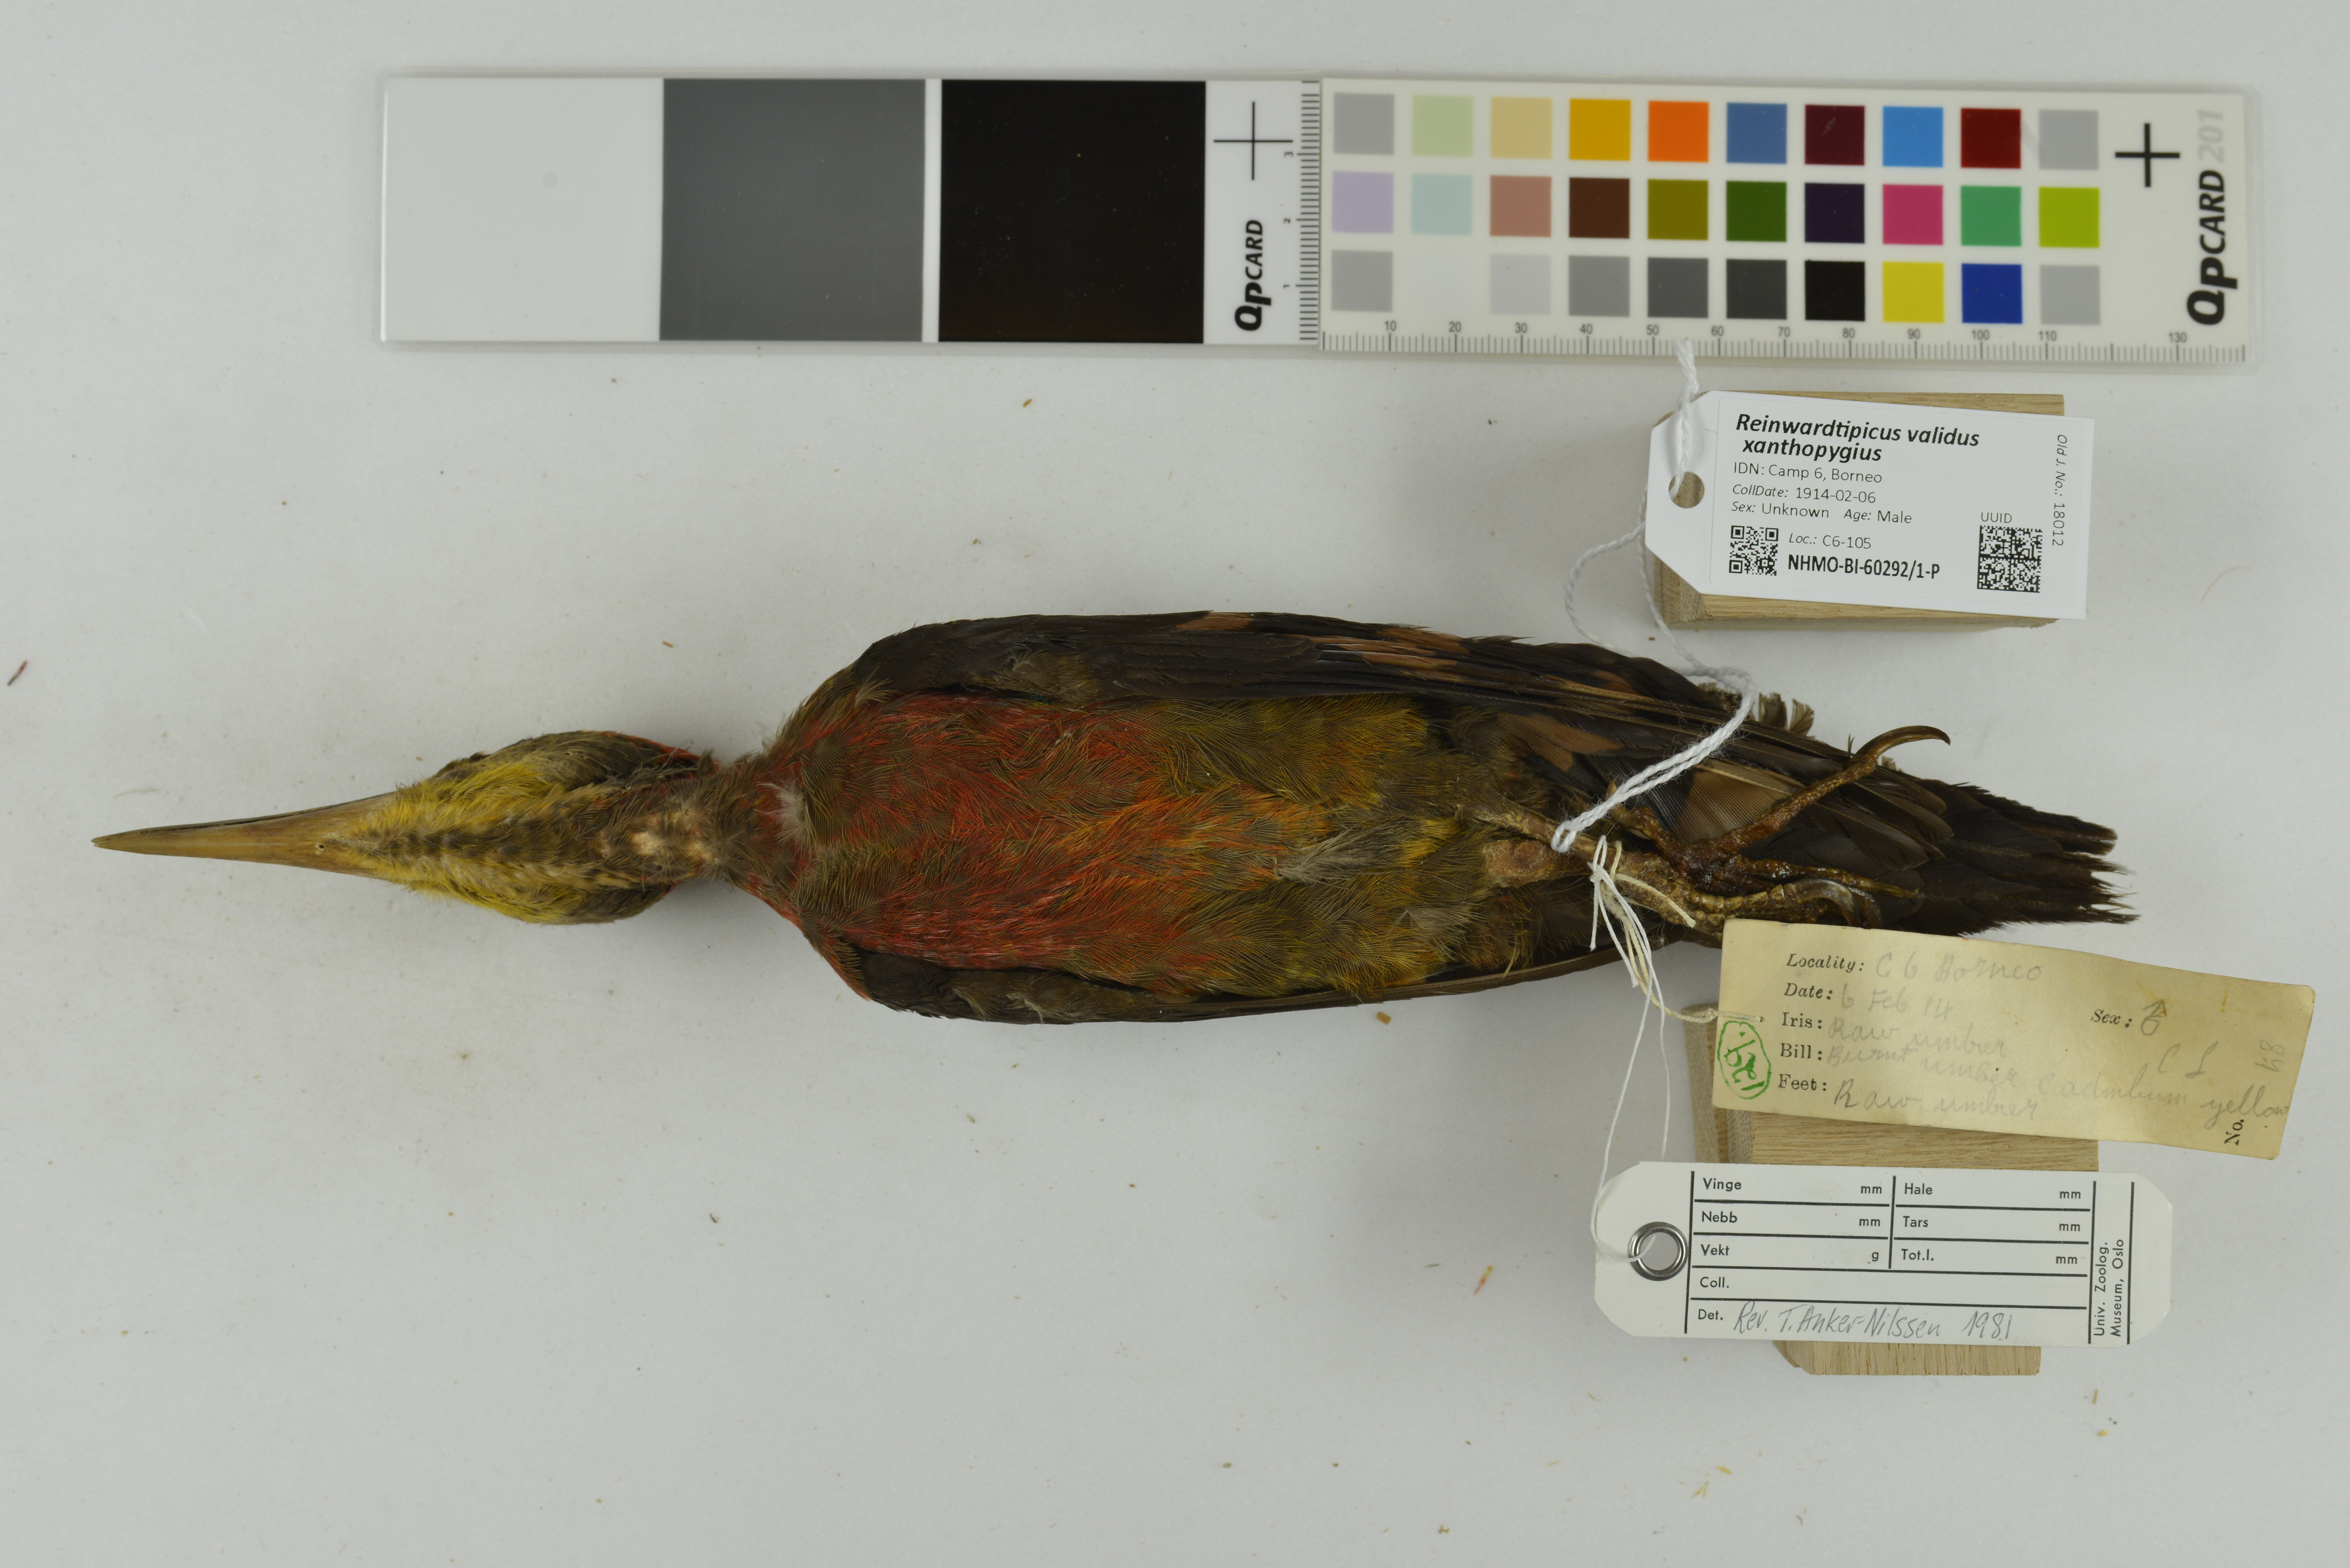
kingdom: Animalia
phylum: Chordata
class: Aves
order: Piciformes
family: Picidae
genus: Reinwardtipicus
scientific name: Reinwardtipicus validus
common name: Orange-backed woodpecker
